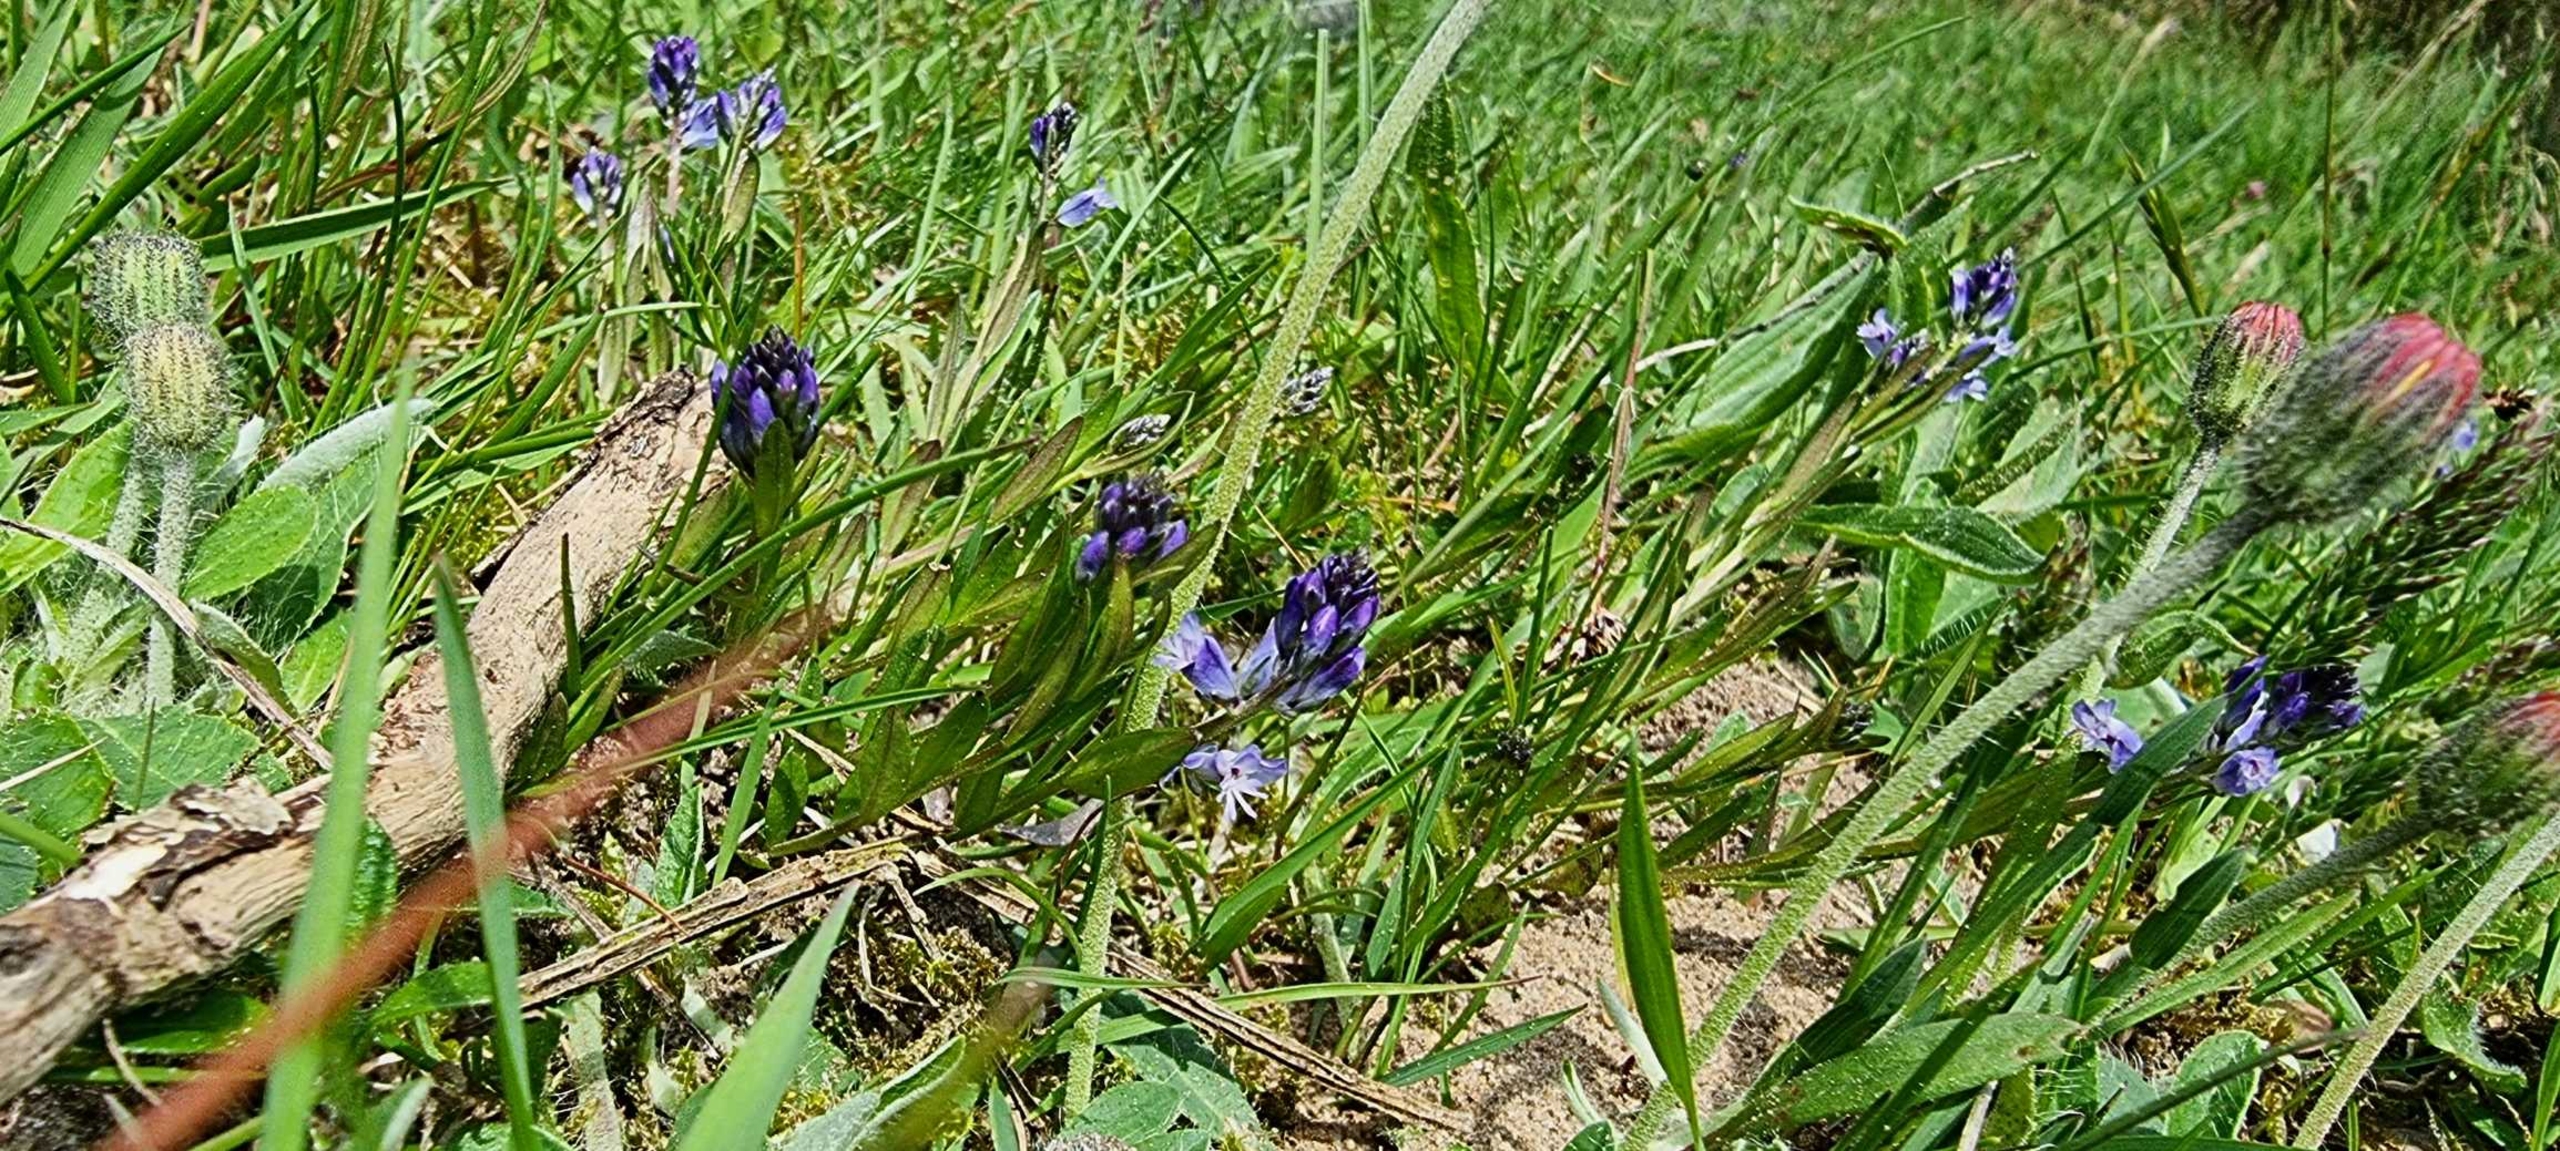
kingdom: Plantae
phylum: Tracheophyta
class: Magnoliopsida
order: Fabales
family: Polygalaceae
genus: Polygala
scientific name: Polygala vulgaris
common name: Almindelig mælkeurt
